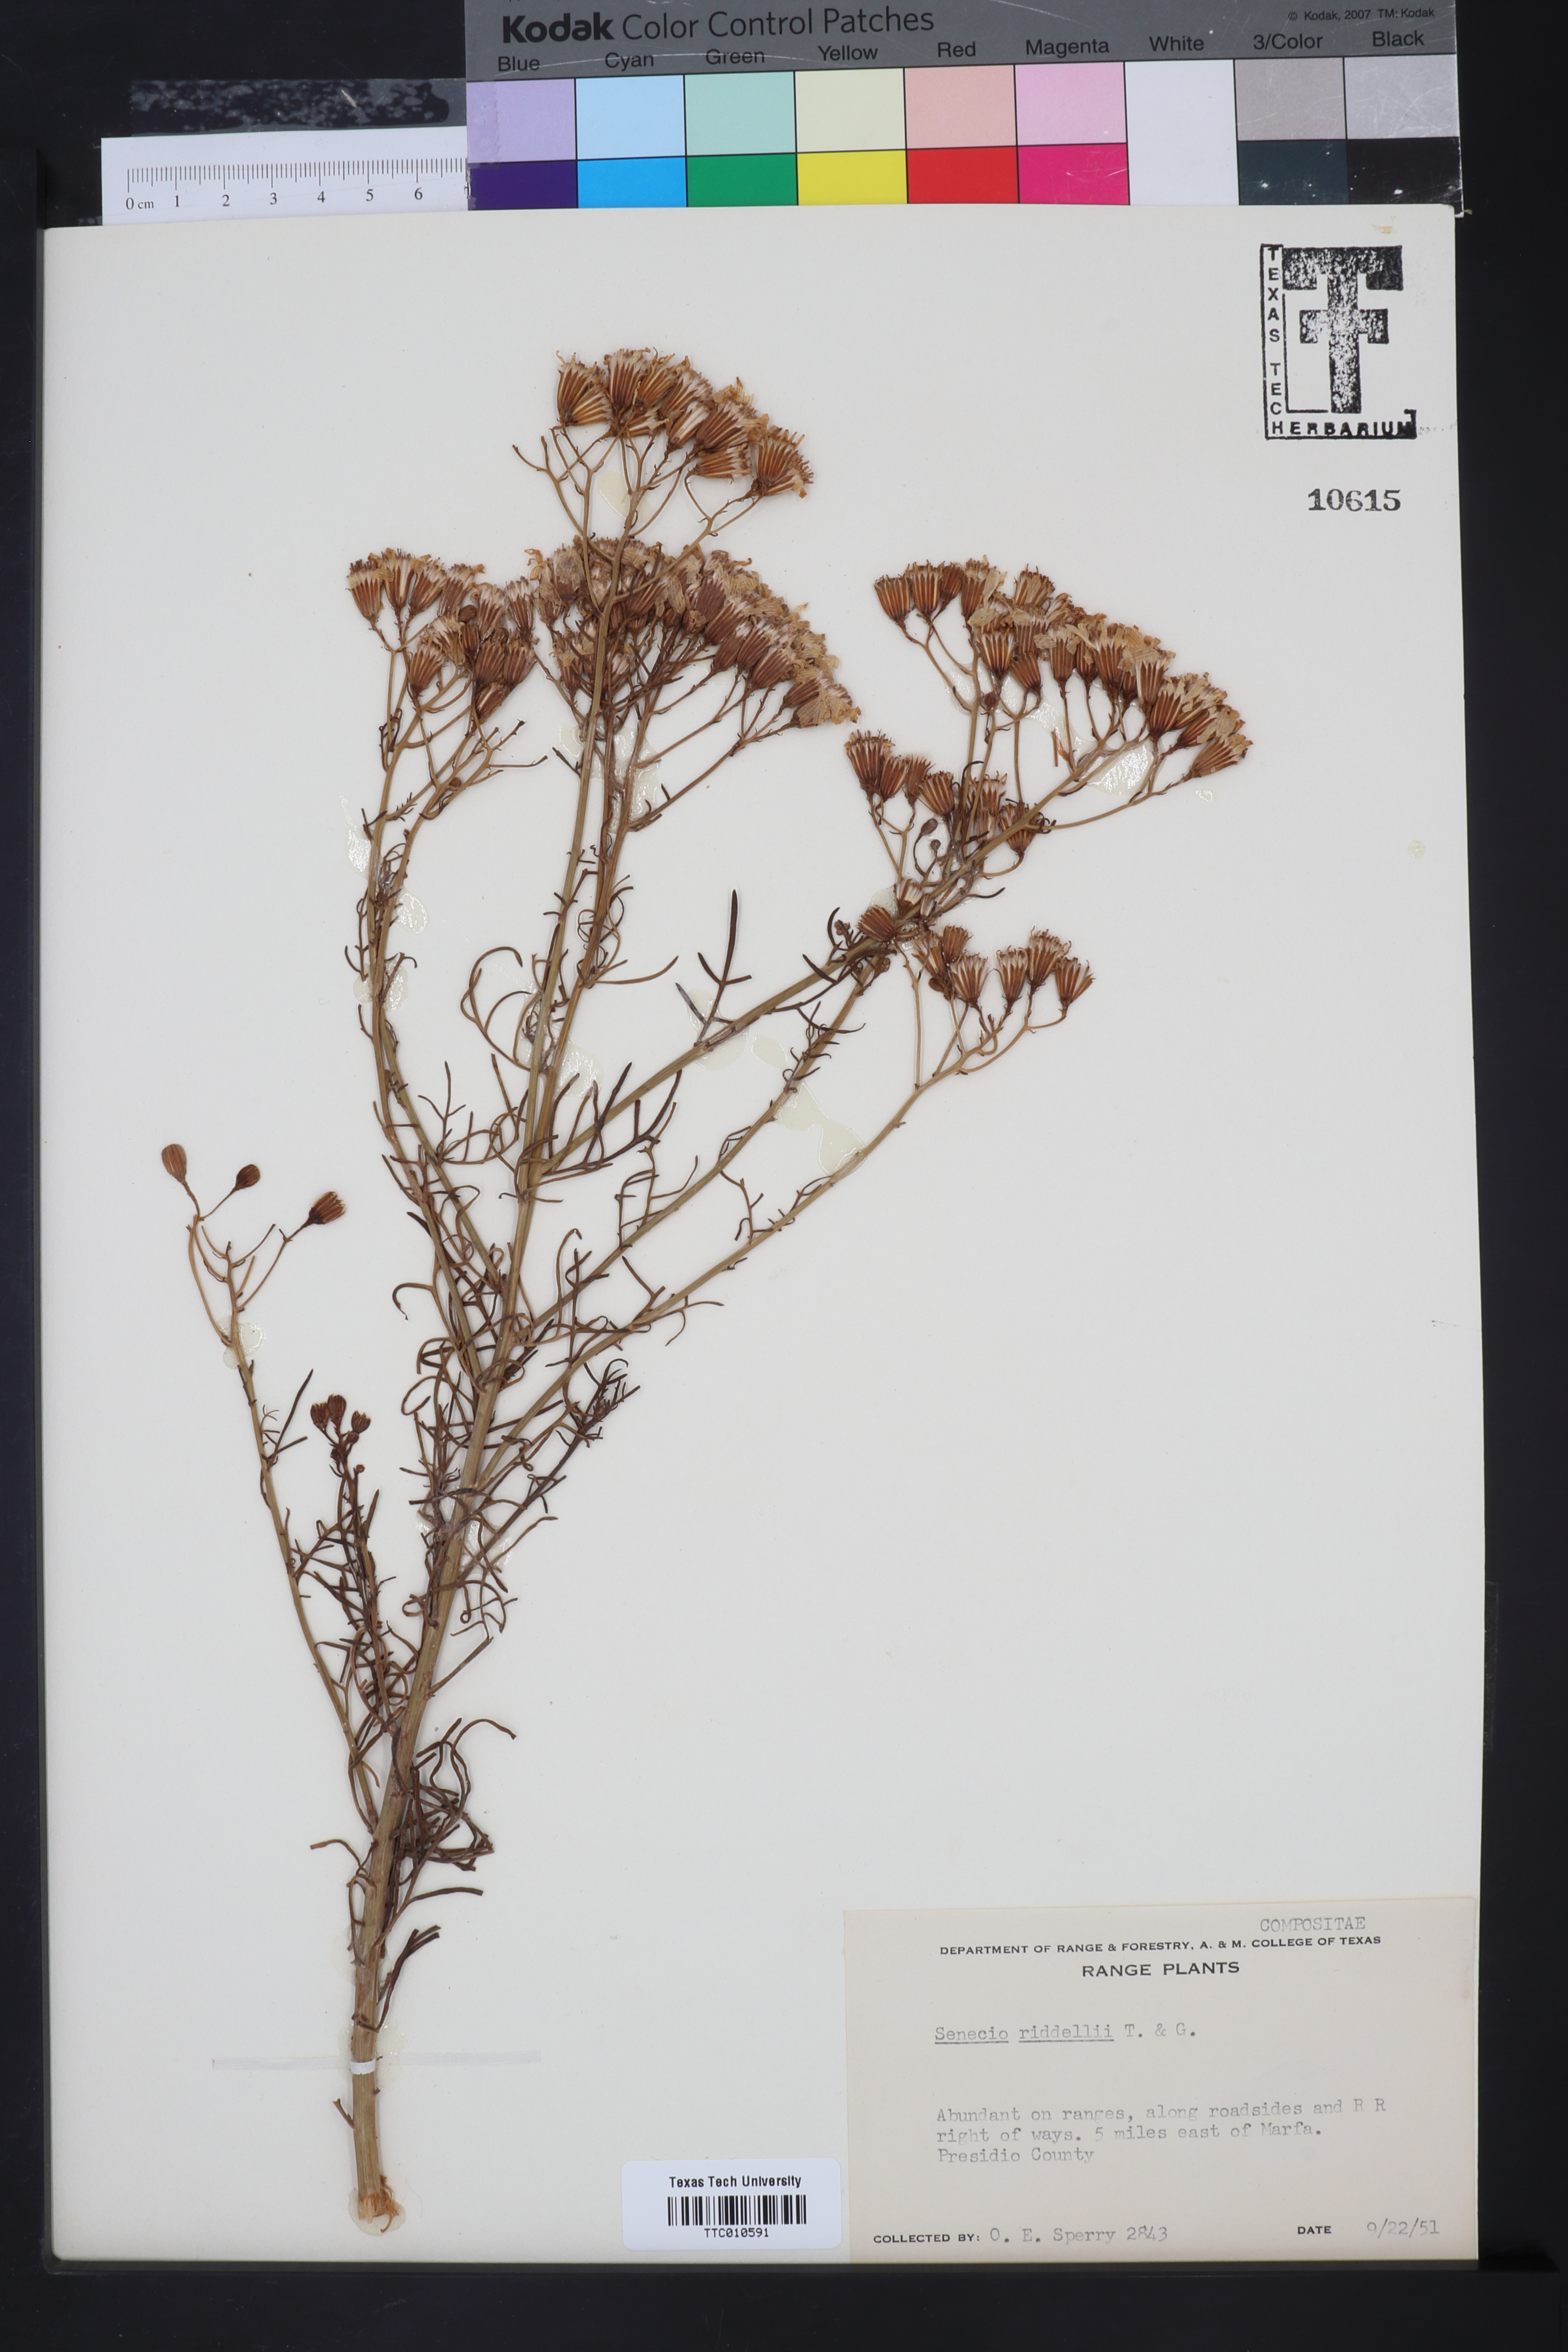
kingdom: Plantae
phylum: Tracheophyta
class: Magnoliopsida
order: Asterales
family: Asteraceae
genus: Senecio
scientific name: Senecio riddellii
